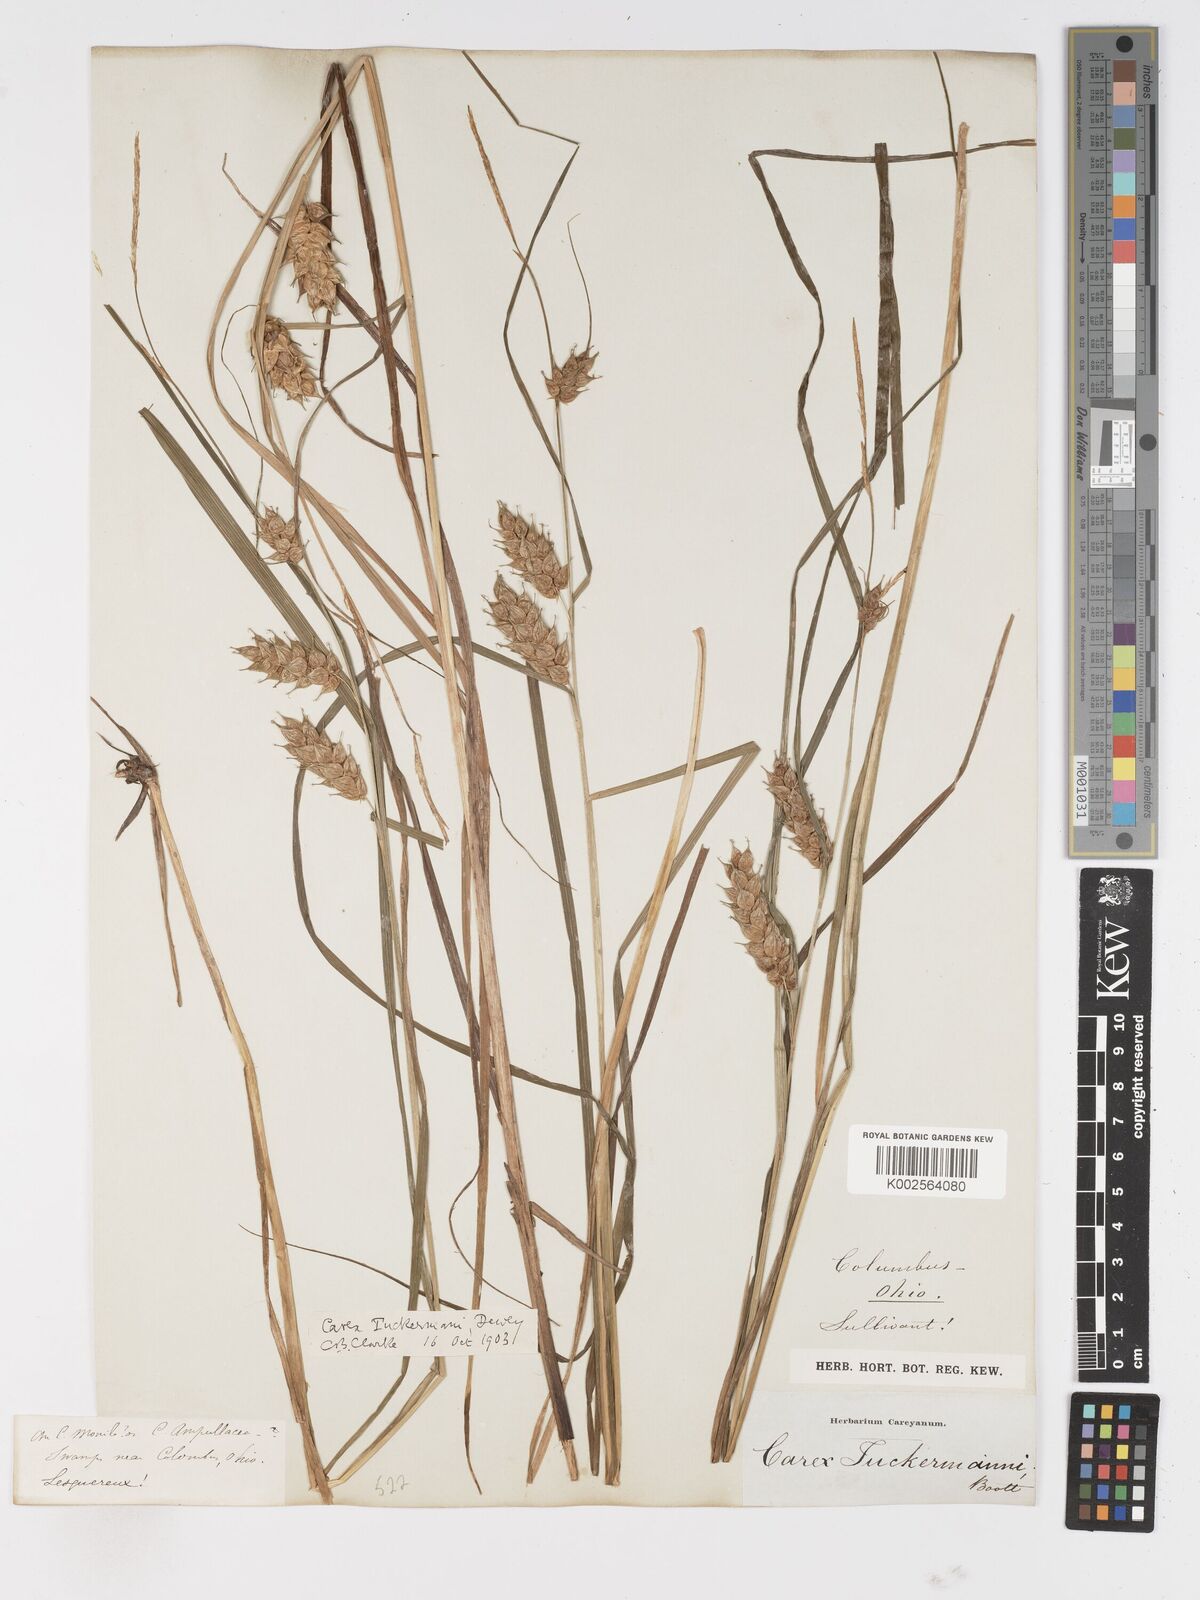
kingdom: Plantae
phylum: Tracheophyta
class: Liliopsida
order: Poales
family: Cyperaceae
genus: Carex
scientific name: Carex tuckermanii
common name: Tuckerman's sedge
